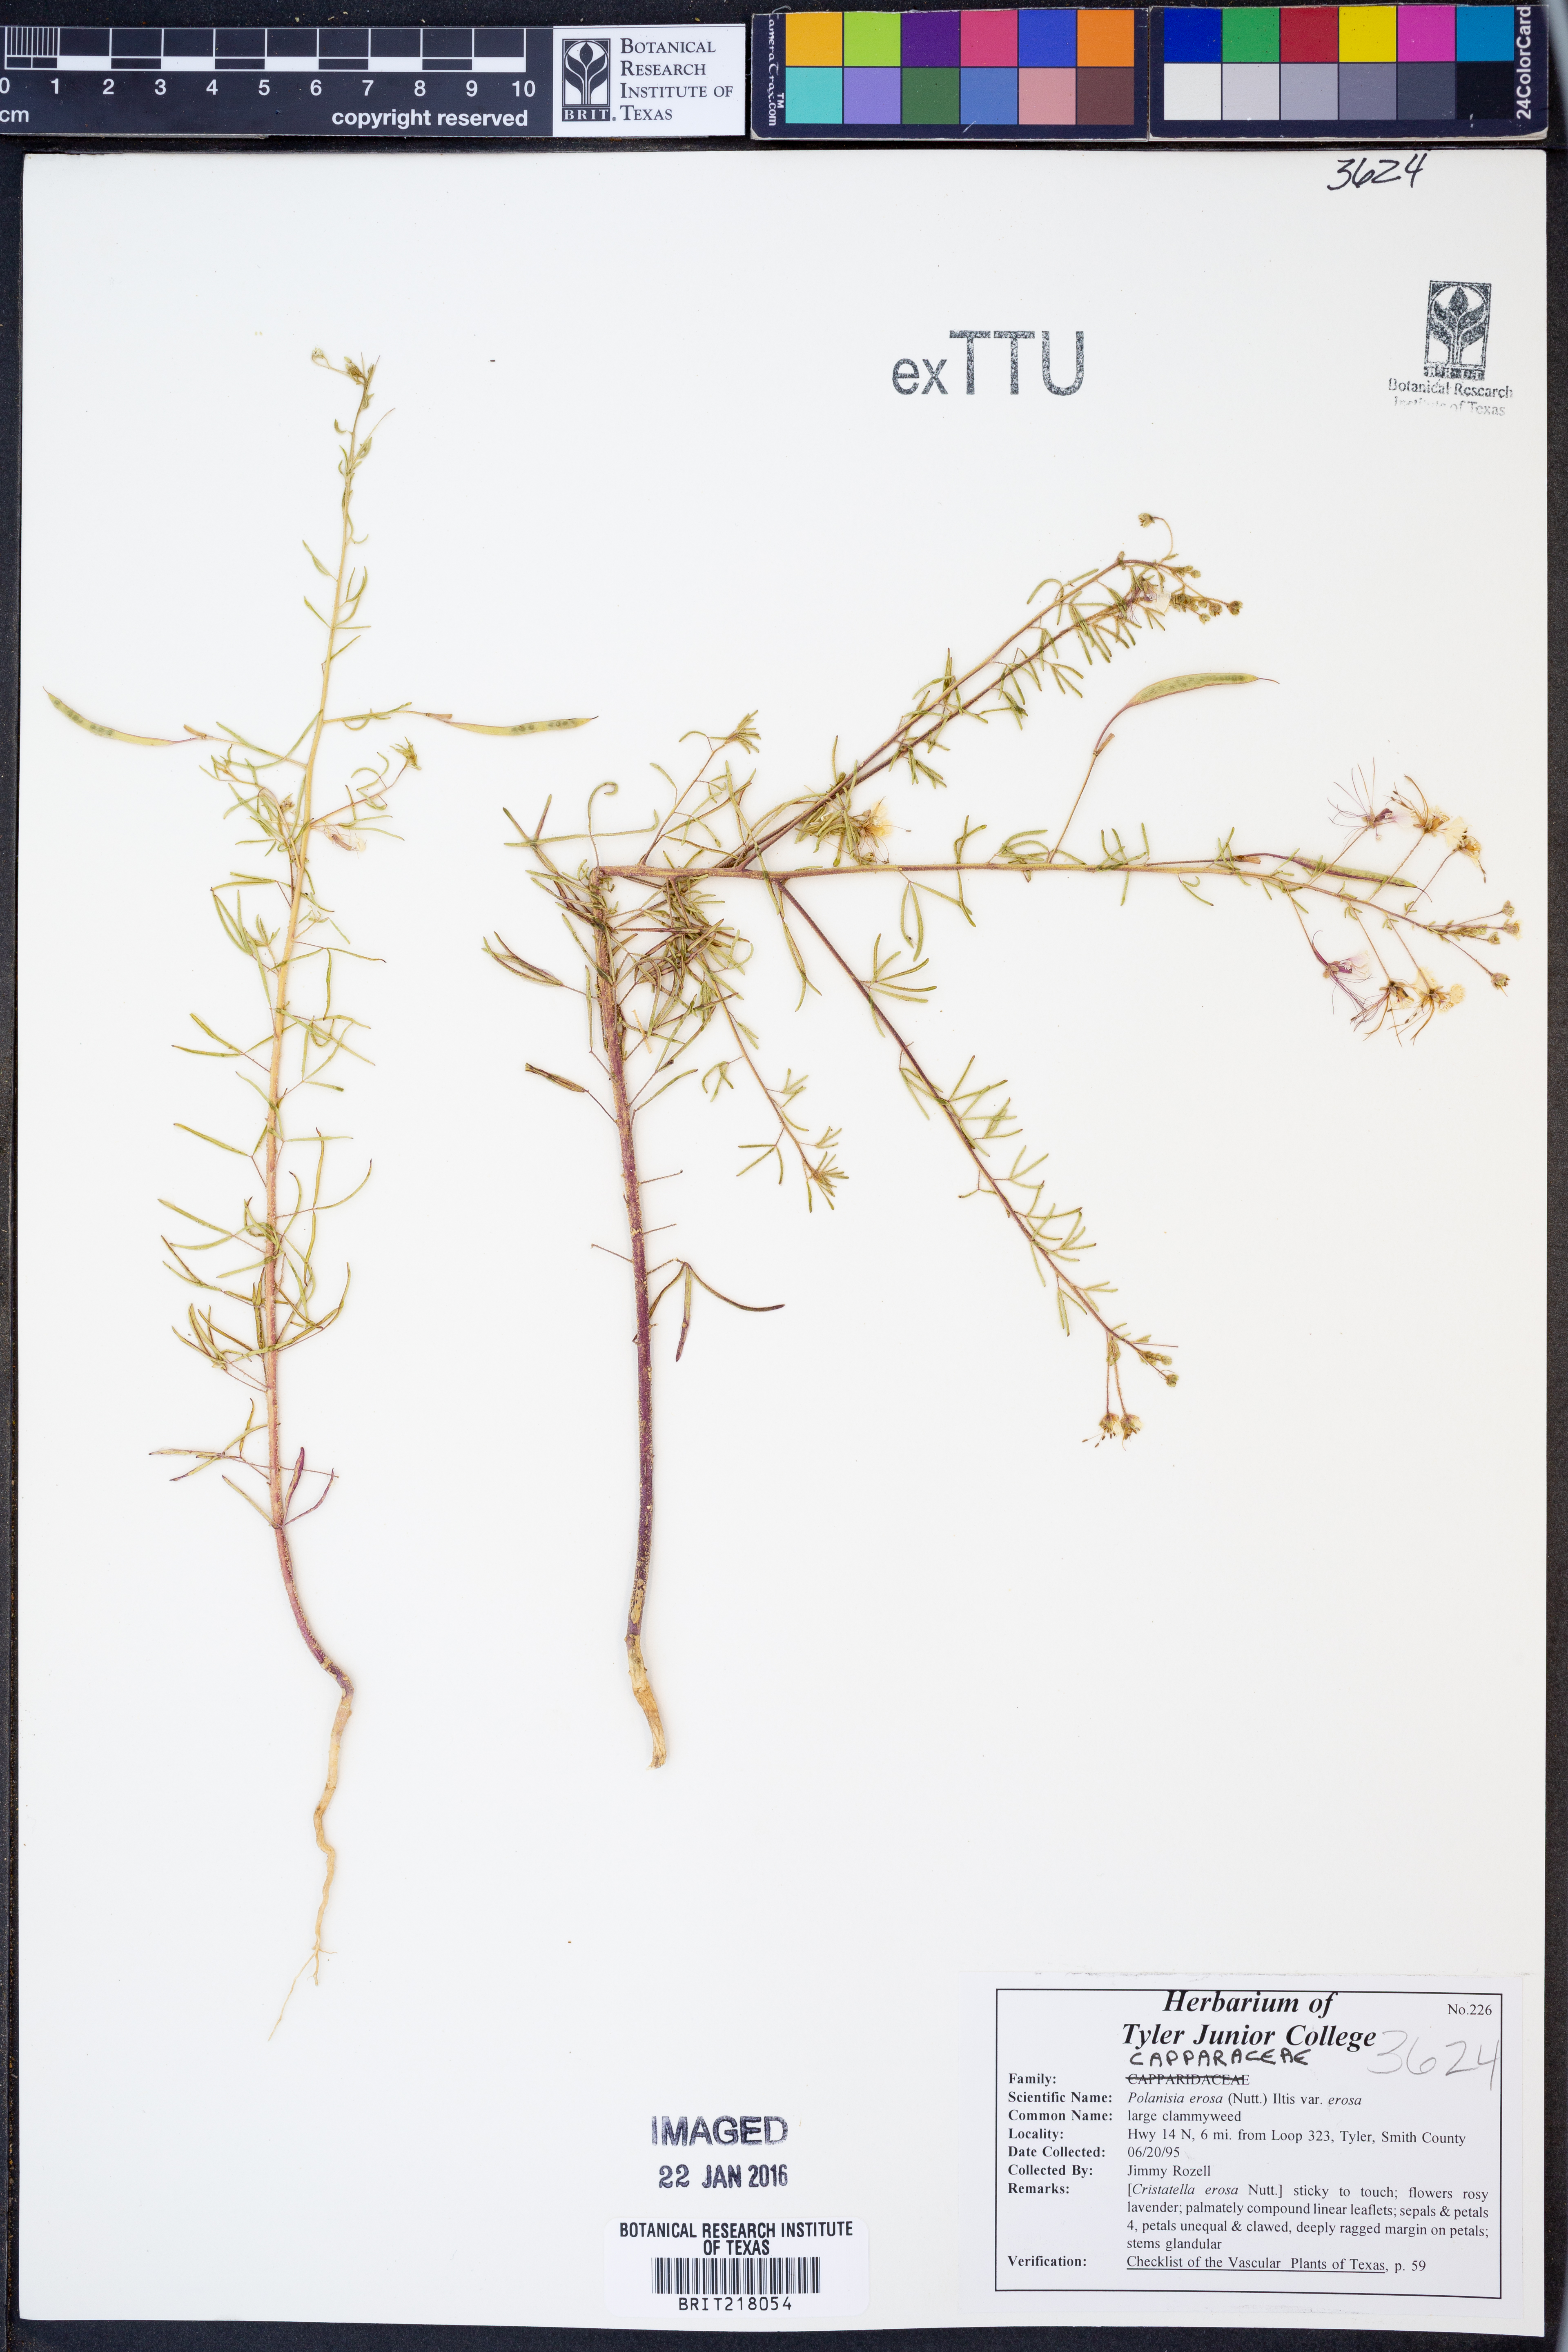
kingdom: Plantae
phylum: Tracheophyta
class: Magnoliopsida
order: Brassicales
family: Cleomaceae
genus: Polanisia
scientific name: Polanisia erosa
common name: Large clammyweed
